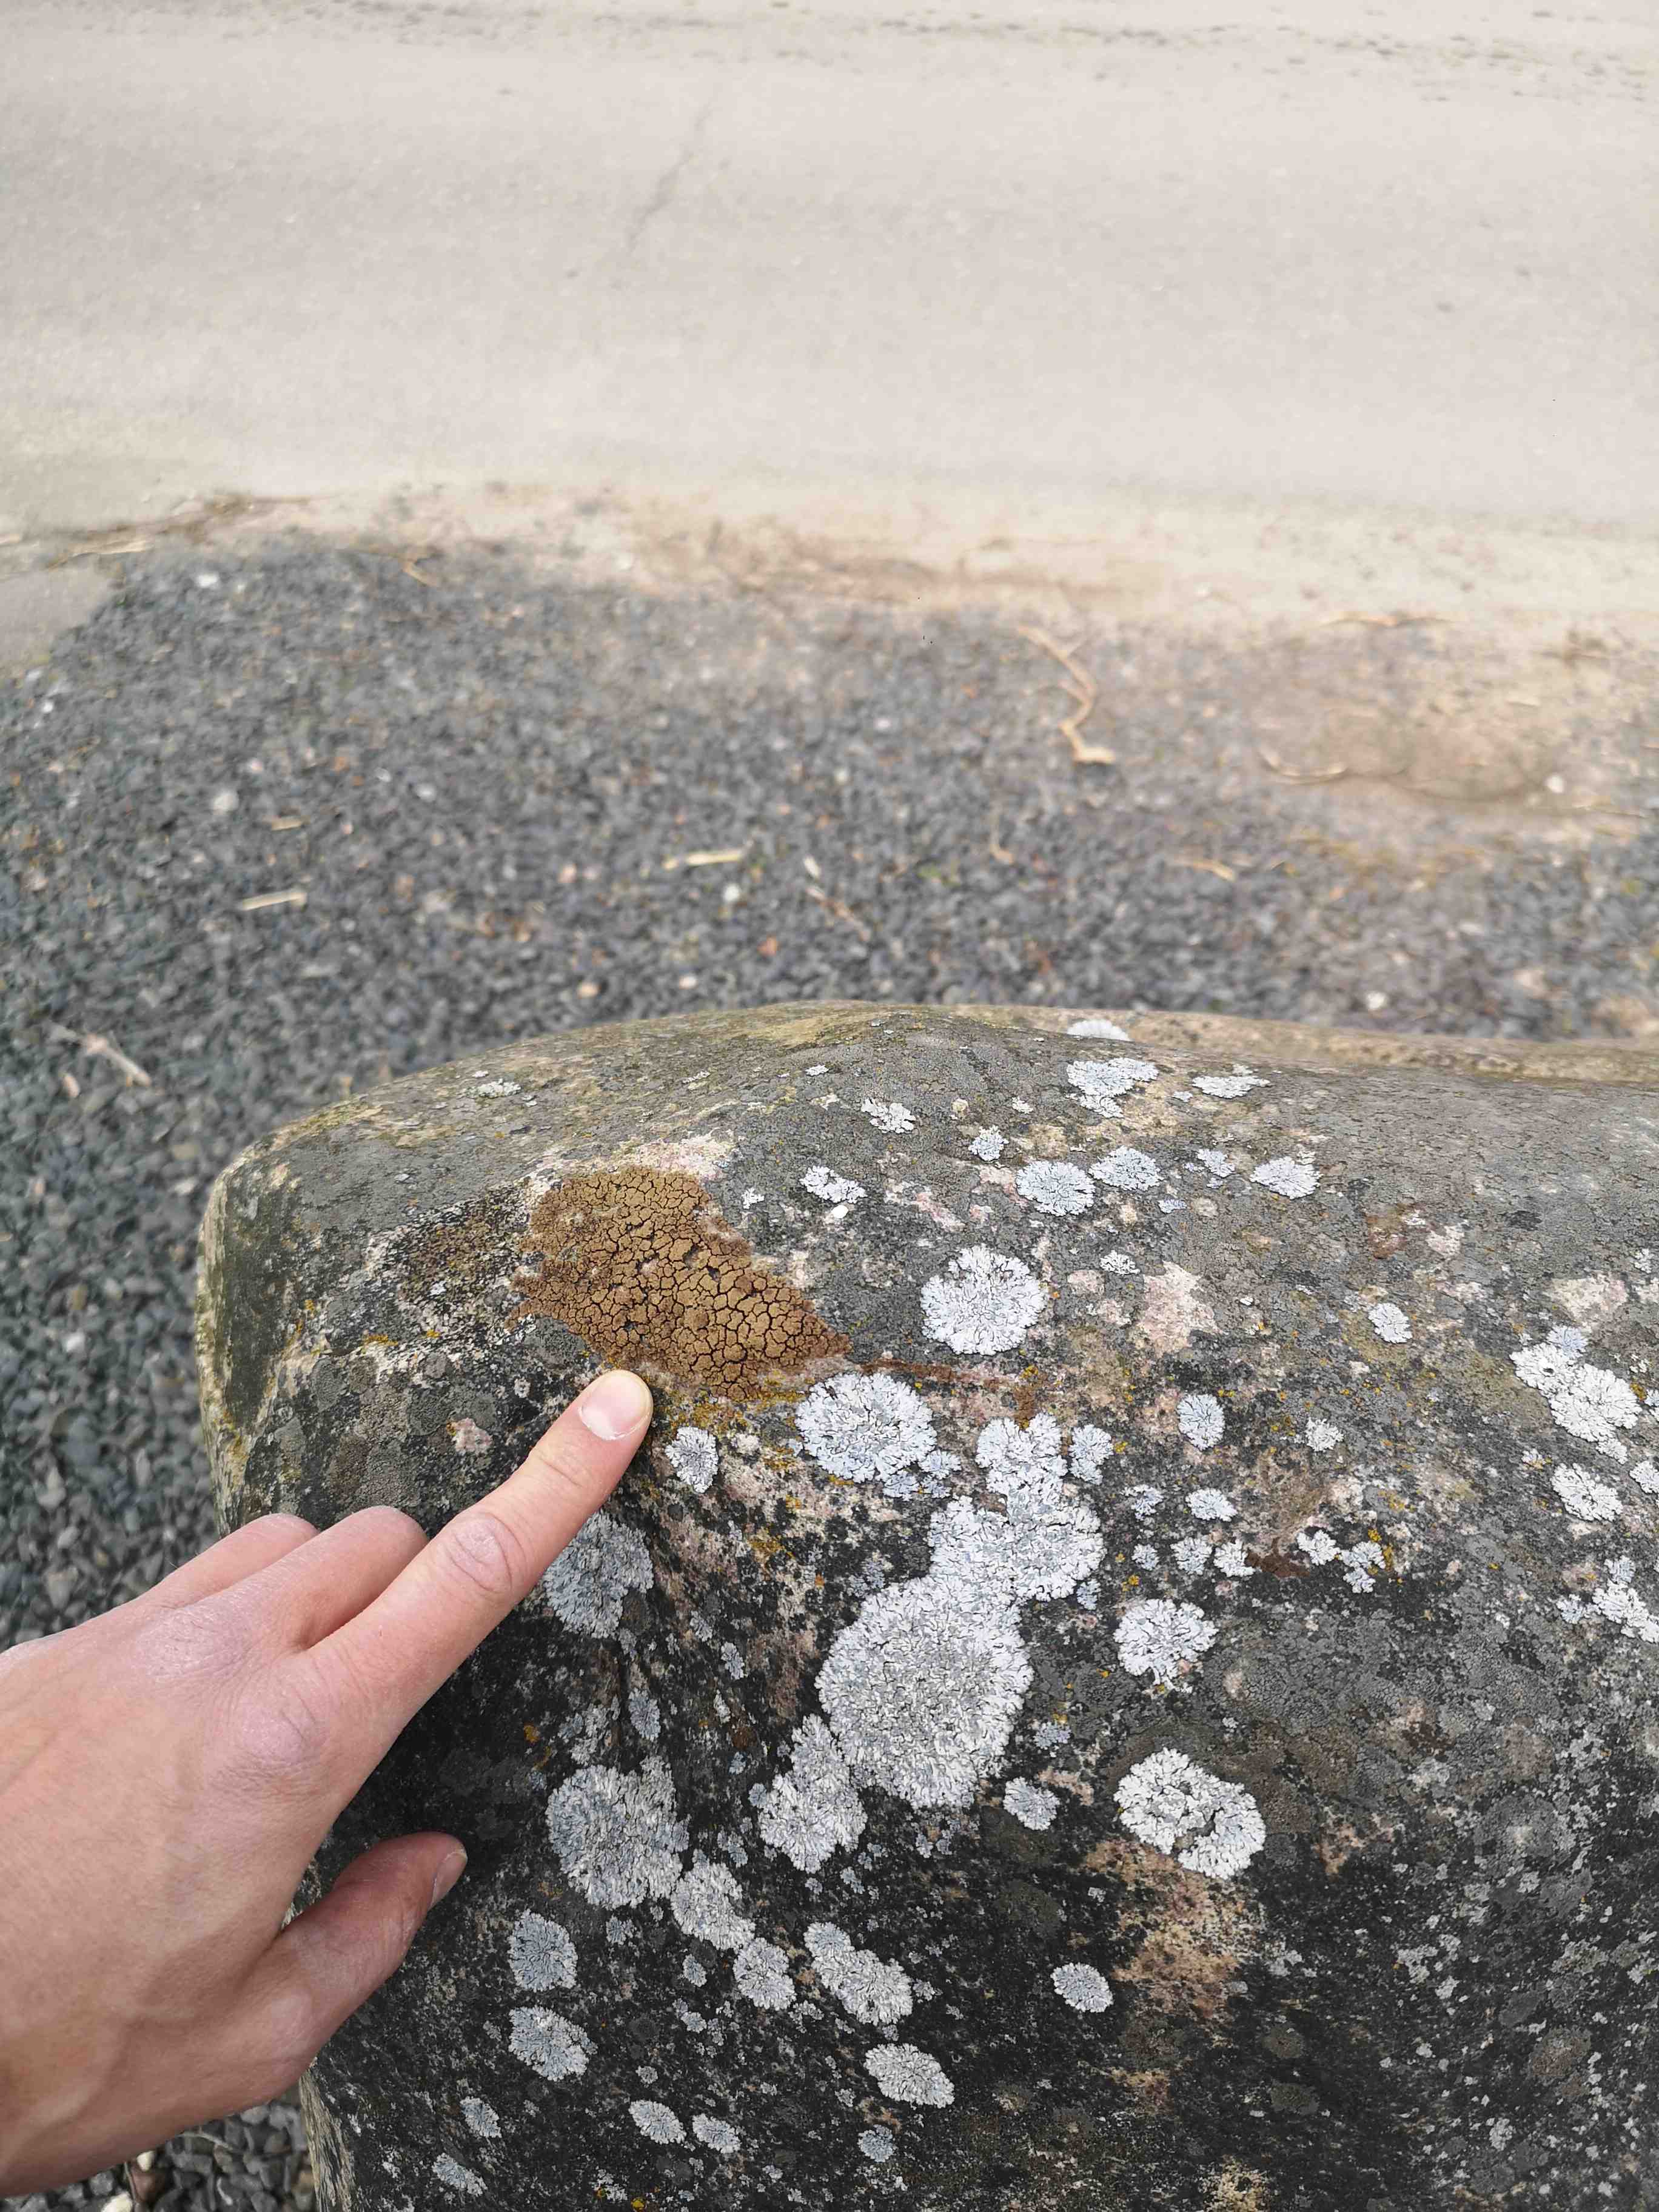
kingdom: Fungi
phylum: Ascomycota
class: Lecanoromycetes
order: Acarosporales
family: Acarosporaceae
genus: Acarospora
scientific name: Acarospora fuscata
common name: brun småsporelav
